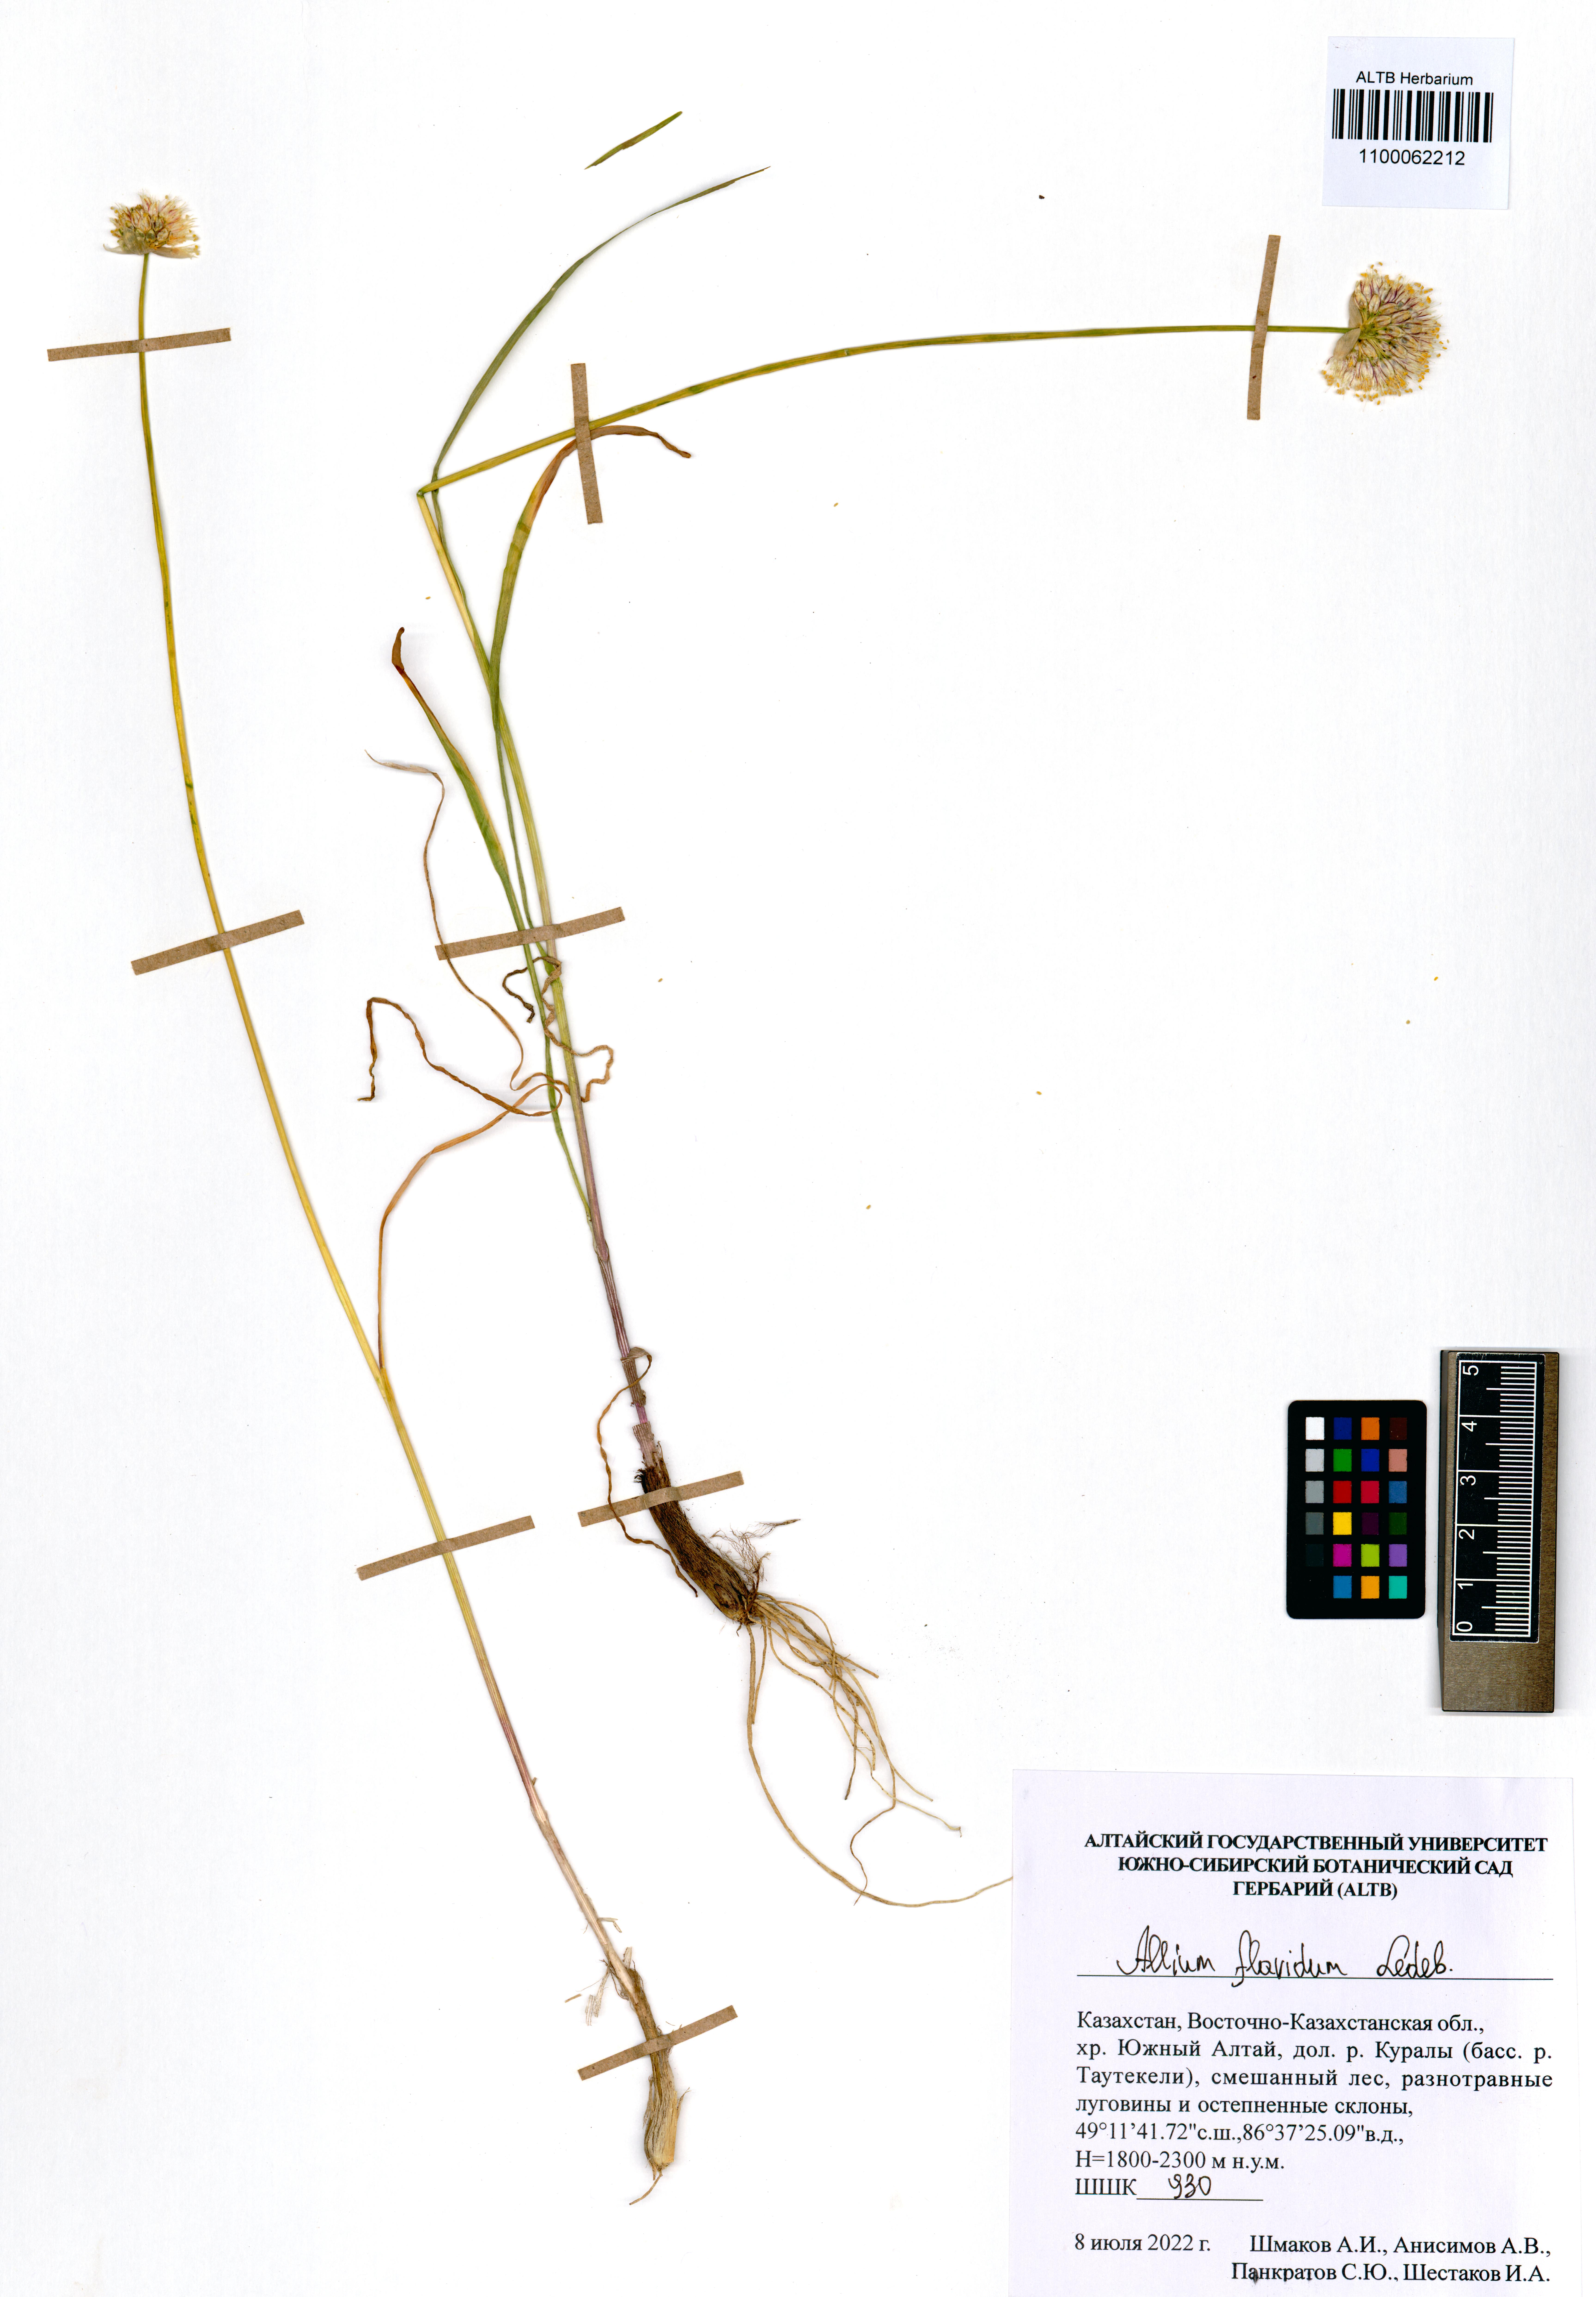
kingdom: Plantae
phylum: Tracheophyta
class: Liliopsida
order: Asparagales
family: Amaryllidaceae
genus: Allium
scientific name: Allium flavidum
